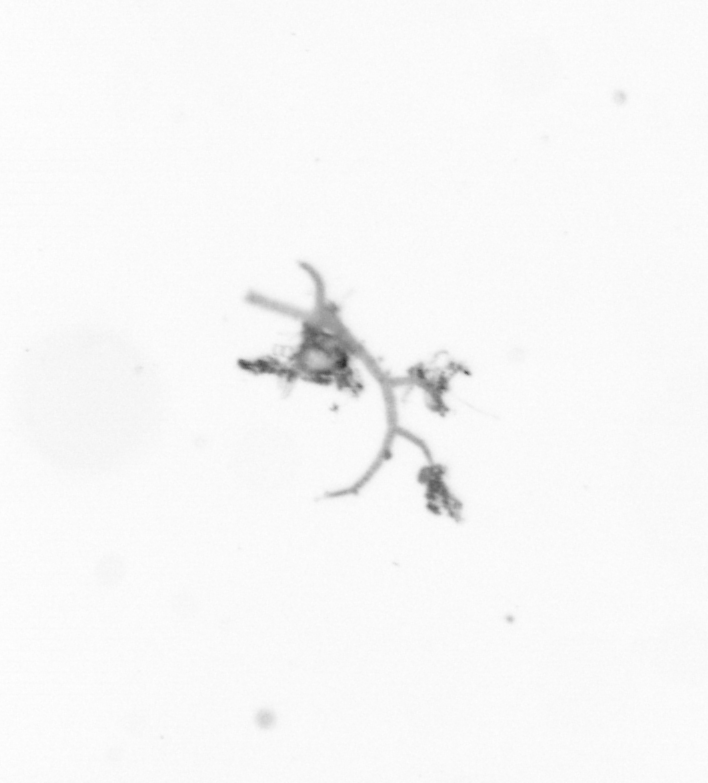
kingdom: Animalia
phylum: Arthropoda
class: Copepoda
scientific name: Copepoda
